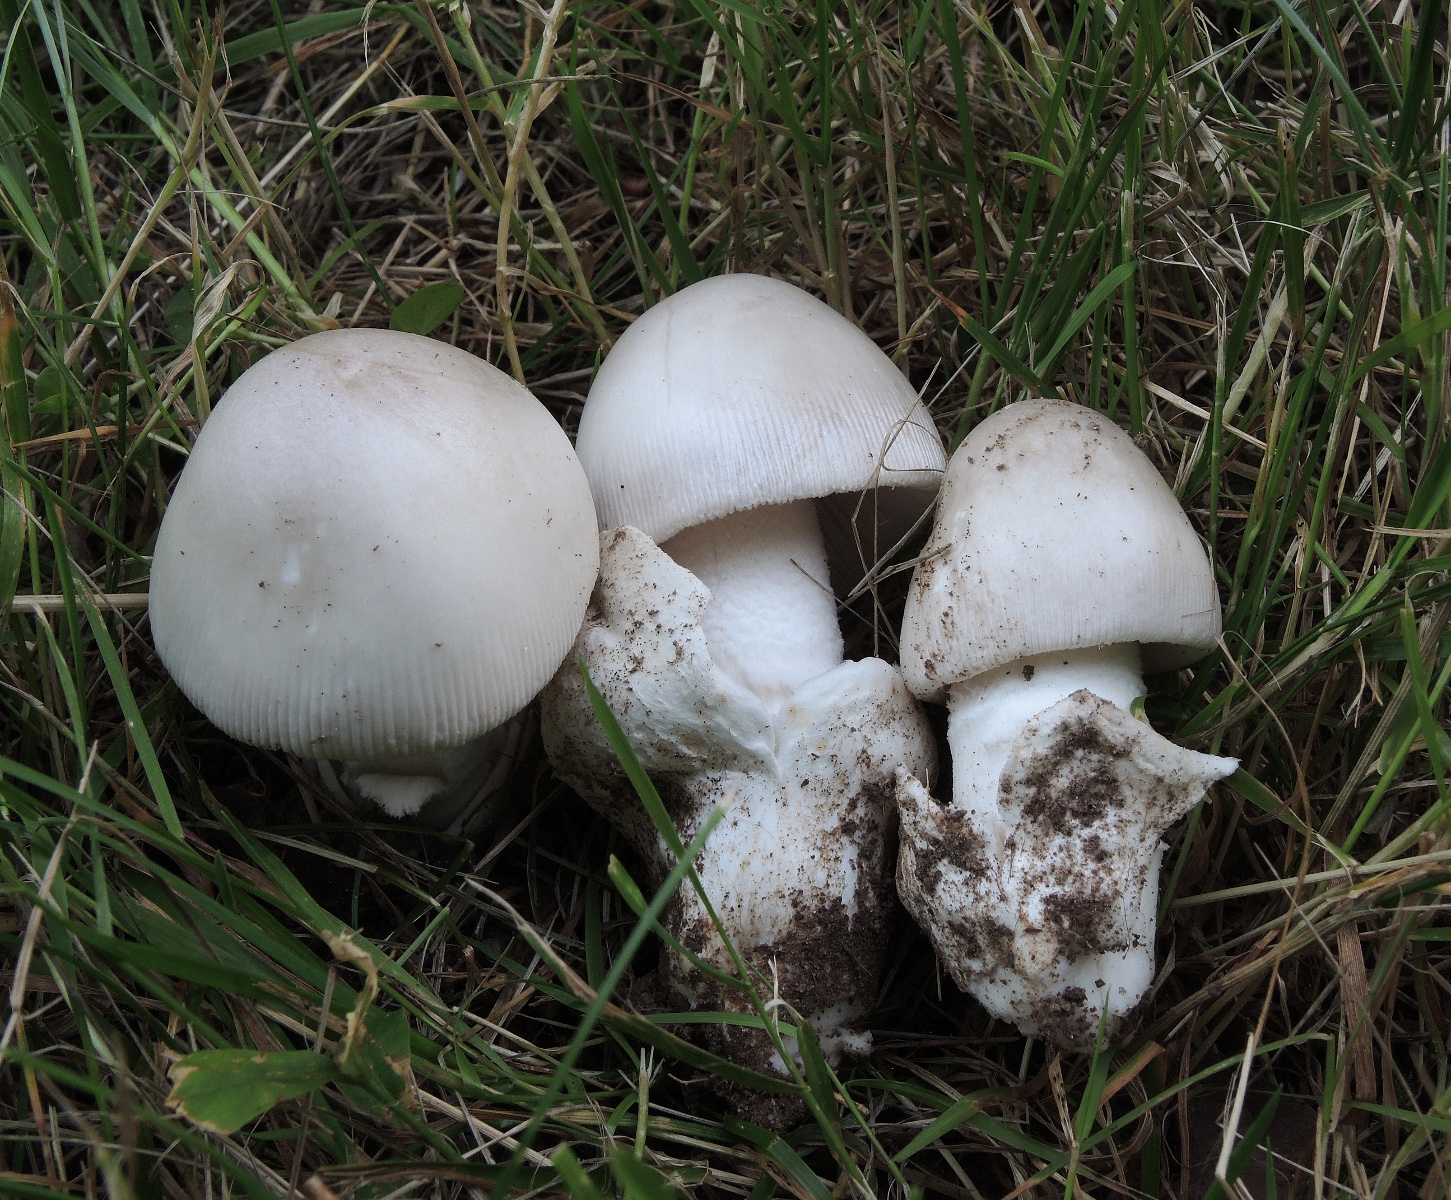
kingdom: Fungi
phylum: Basidiomycota
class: Agaricomycetes
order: Agaricales
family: Amanitaceae
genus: Amanita
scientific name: Amanita huijsmanii
